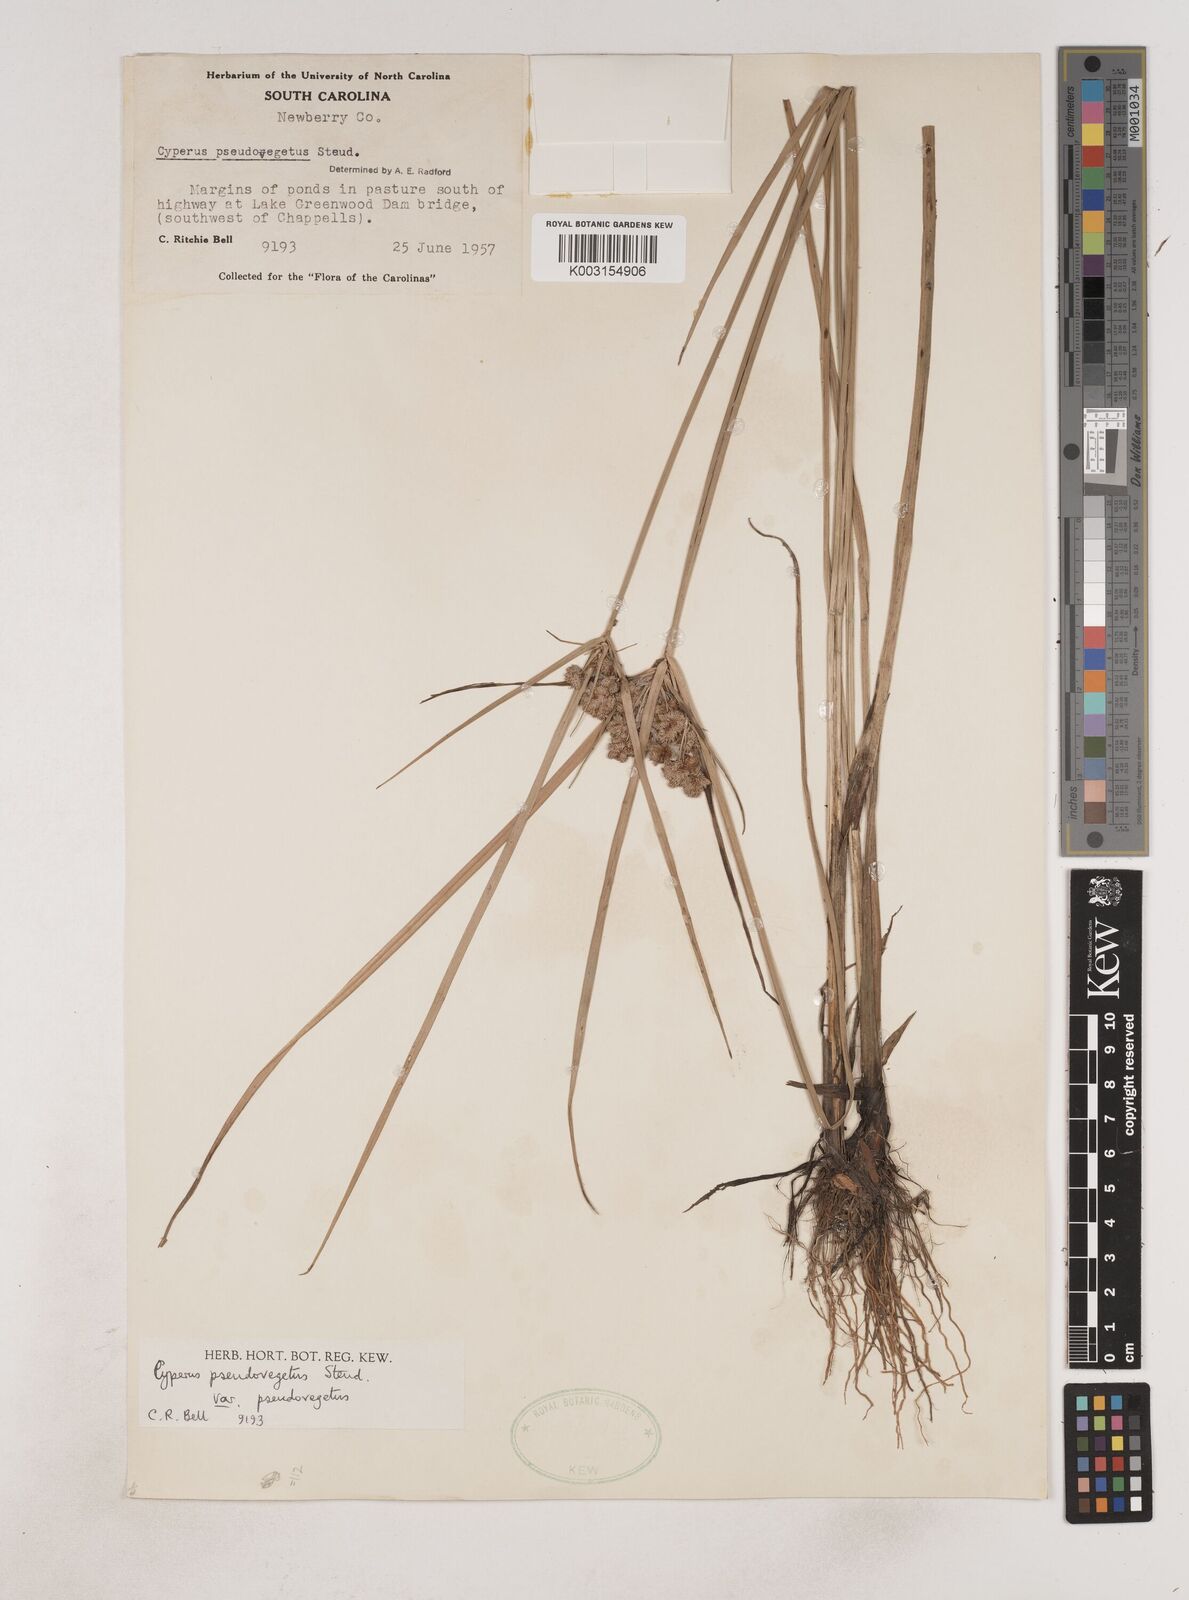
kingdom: Plantae
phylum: Tracheophyta
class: Liliopsida
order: Poales
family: Cyperaceae
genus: Cyperus
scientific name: Cyperus pseudovegetus
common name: Marsh flat sedge
